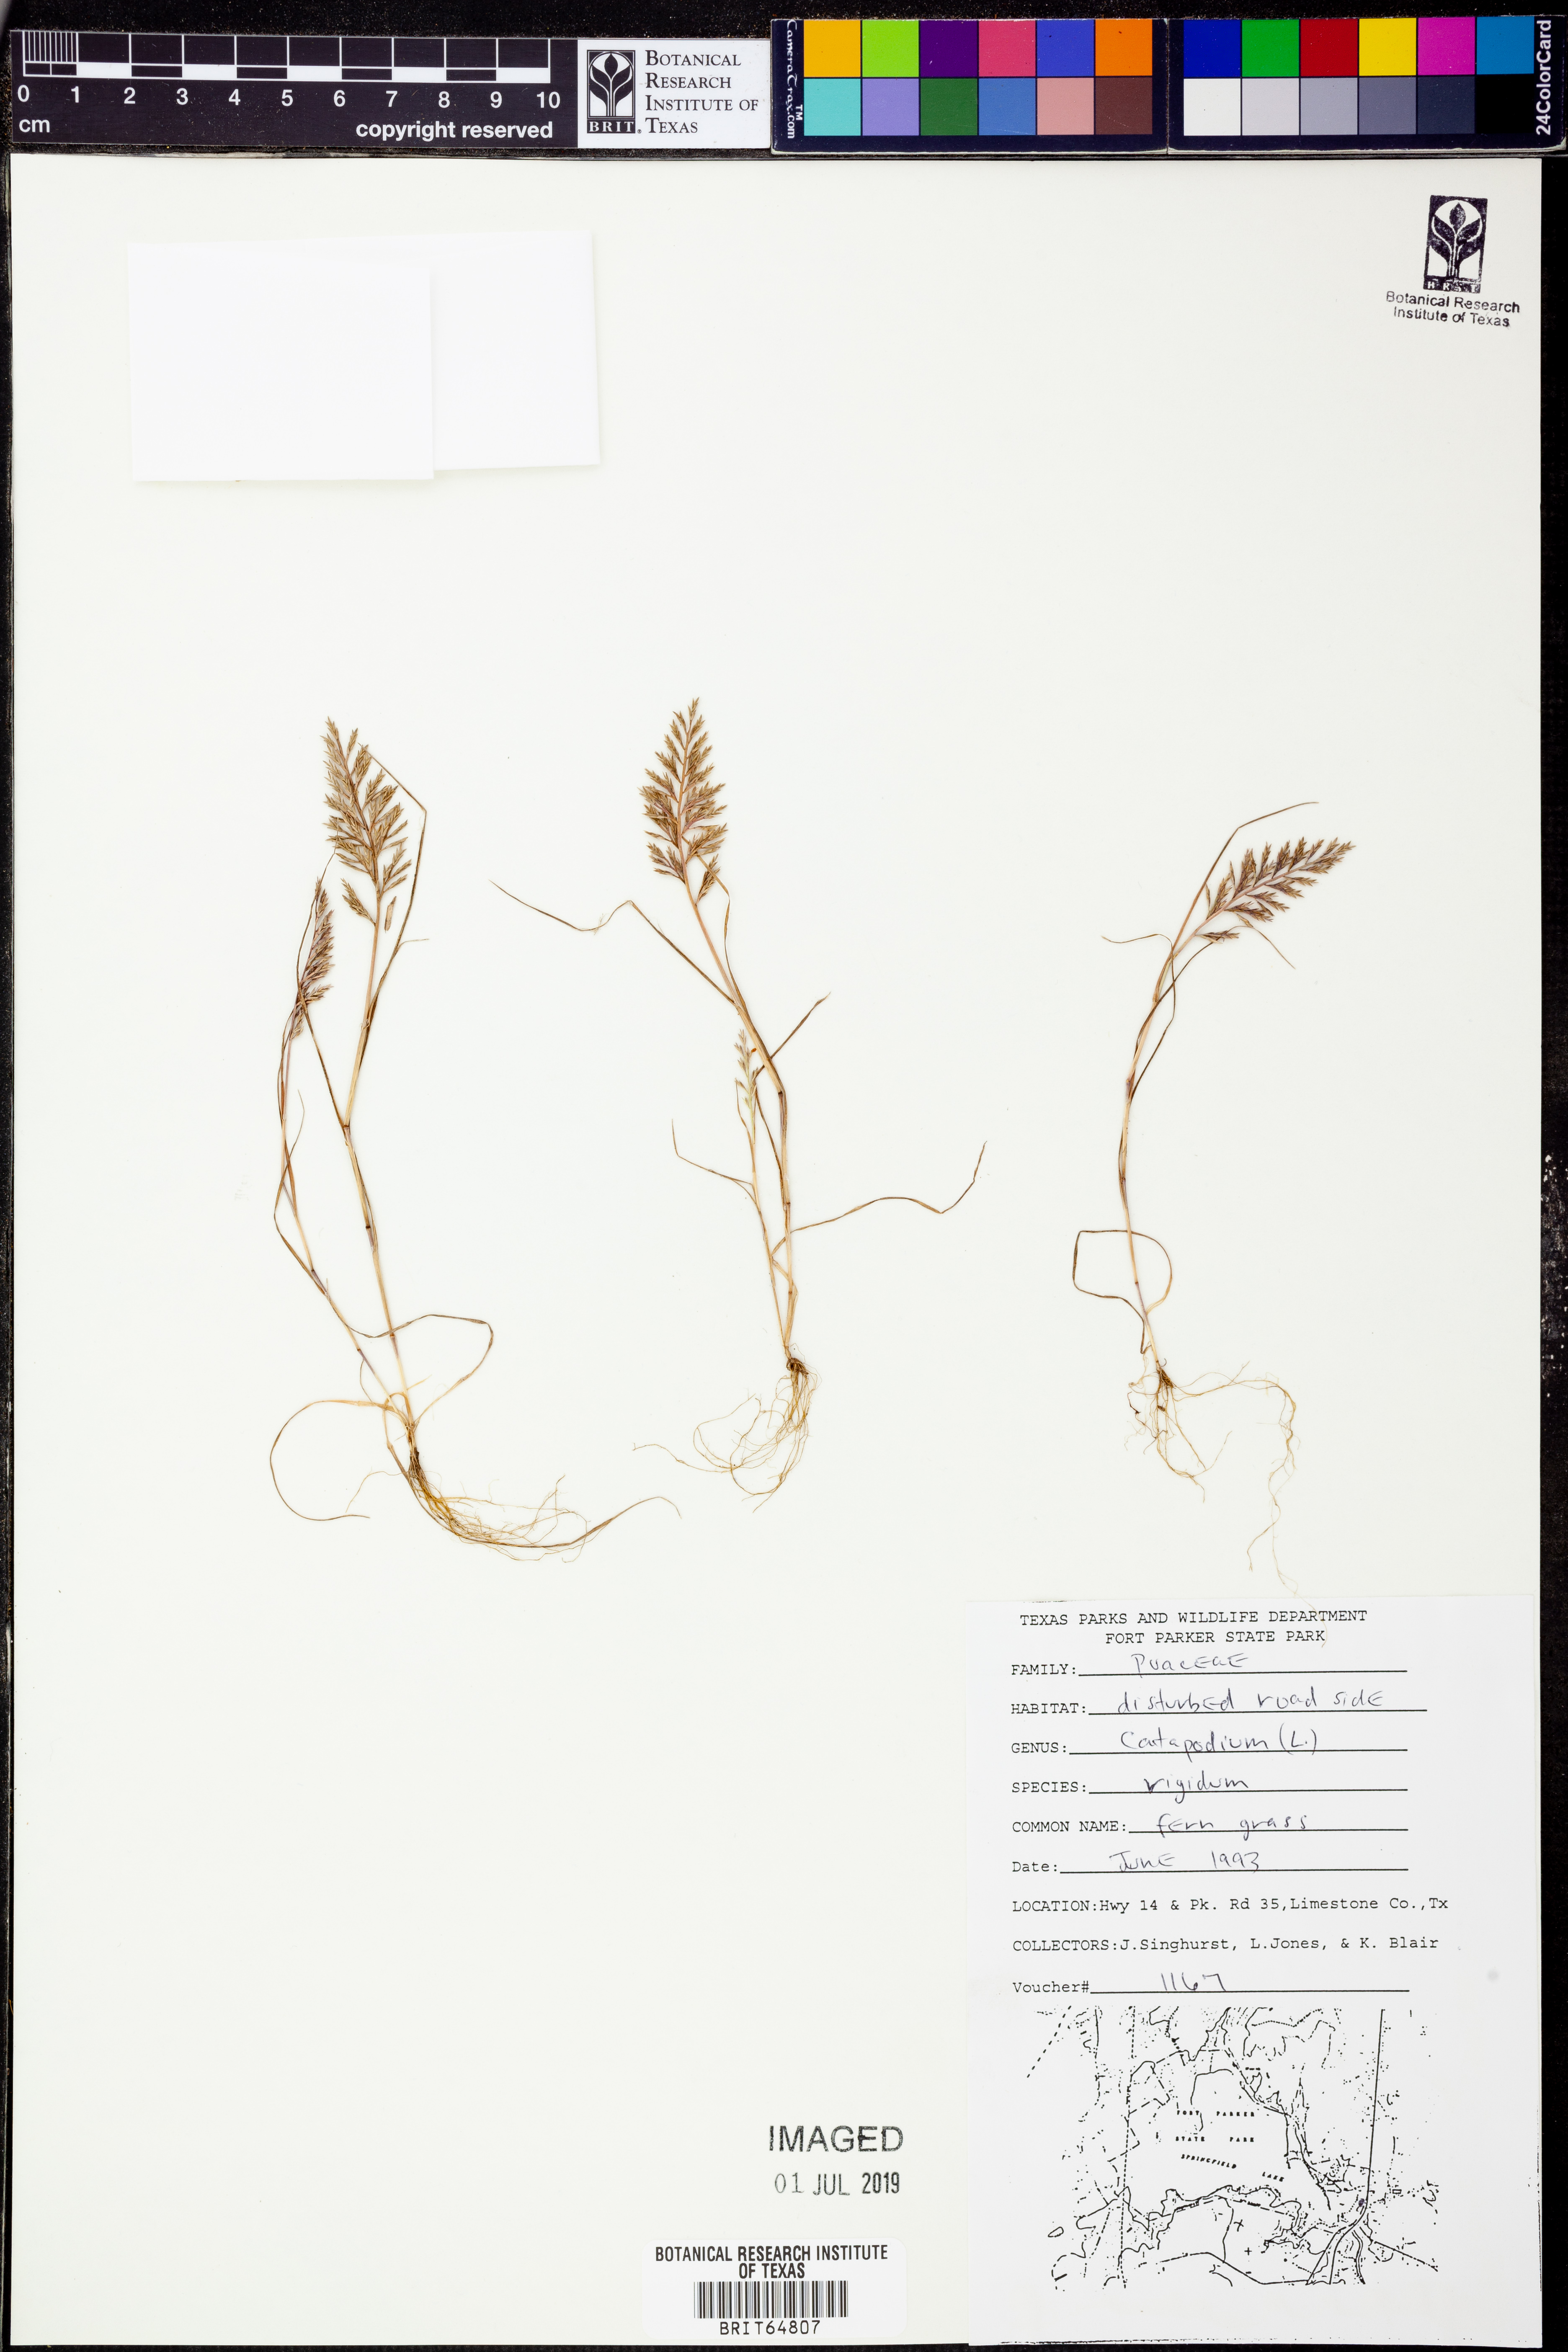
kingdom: Plantae
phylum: Tracheophyta
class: Liliopsida
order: Poales
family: Poaceae
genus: Catapodium
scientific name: Catapodium rigidum
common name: Fern-grass
